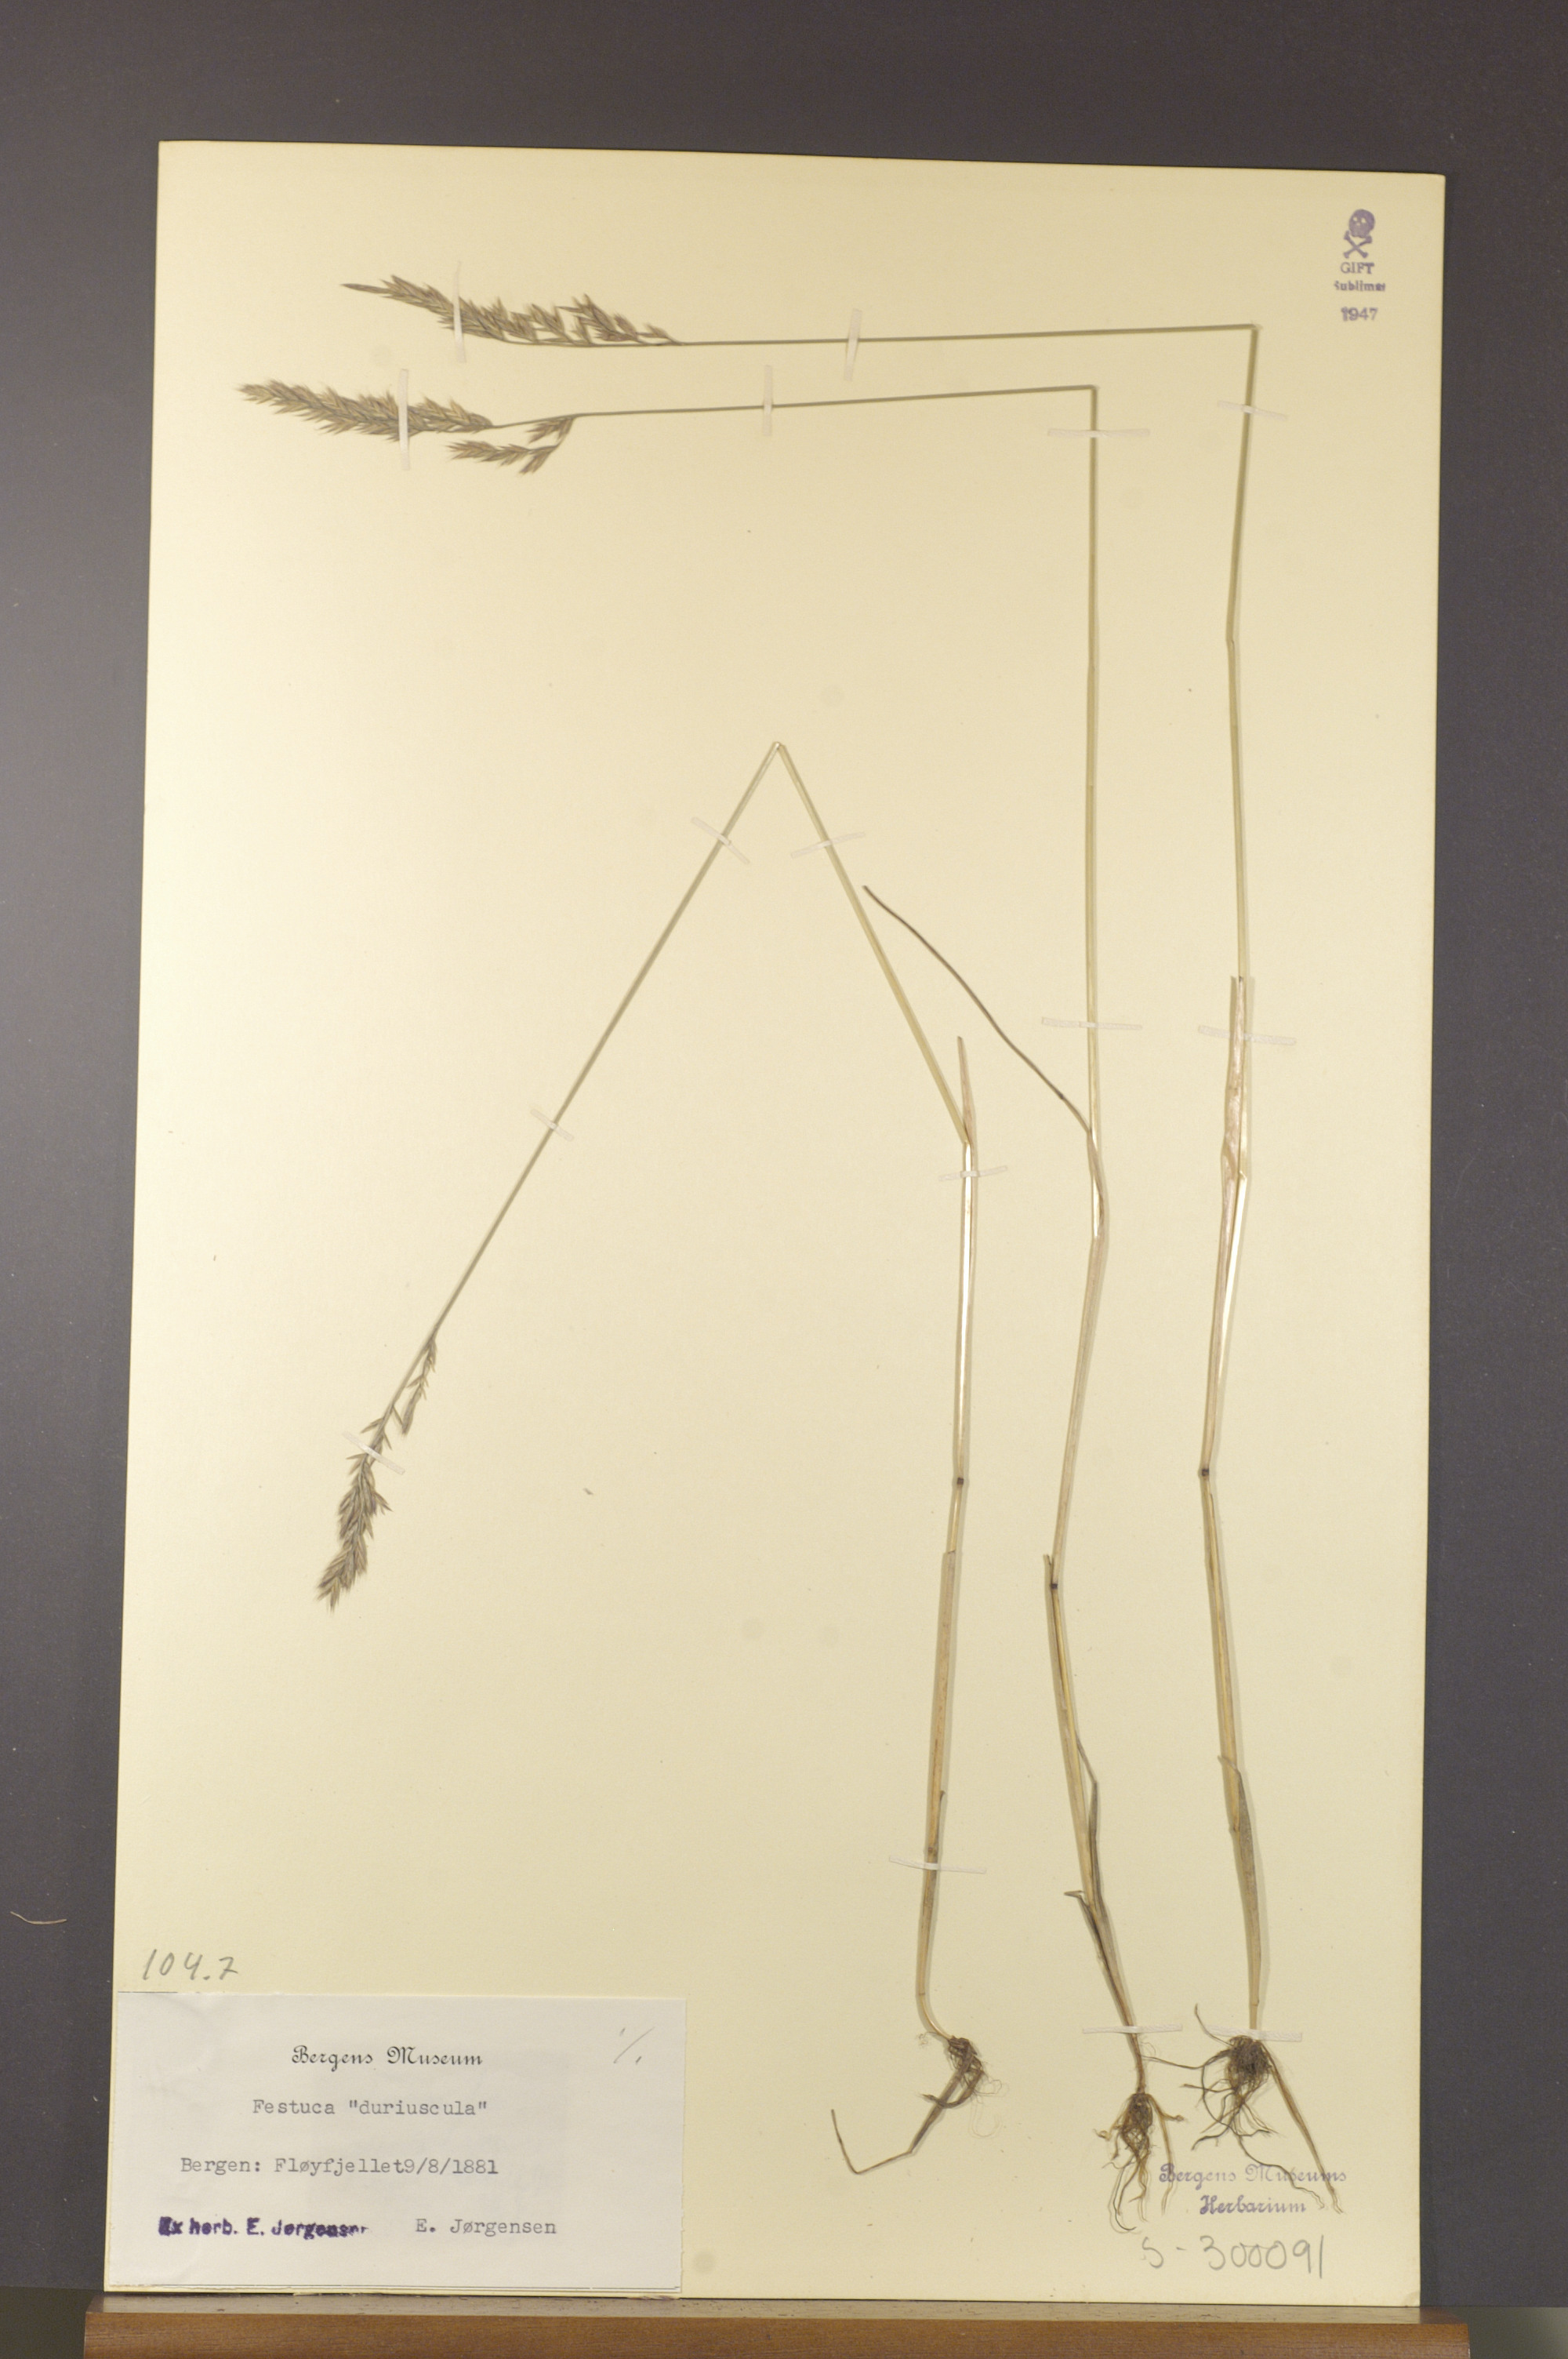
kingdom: Plantae
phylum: Tracheophyta
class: Liliopsida
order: Poales
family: Poaceae
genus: Festuca
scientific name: Festuca trachyphylla
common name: Hard fescue
